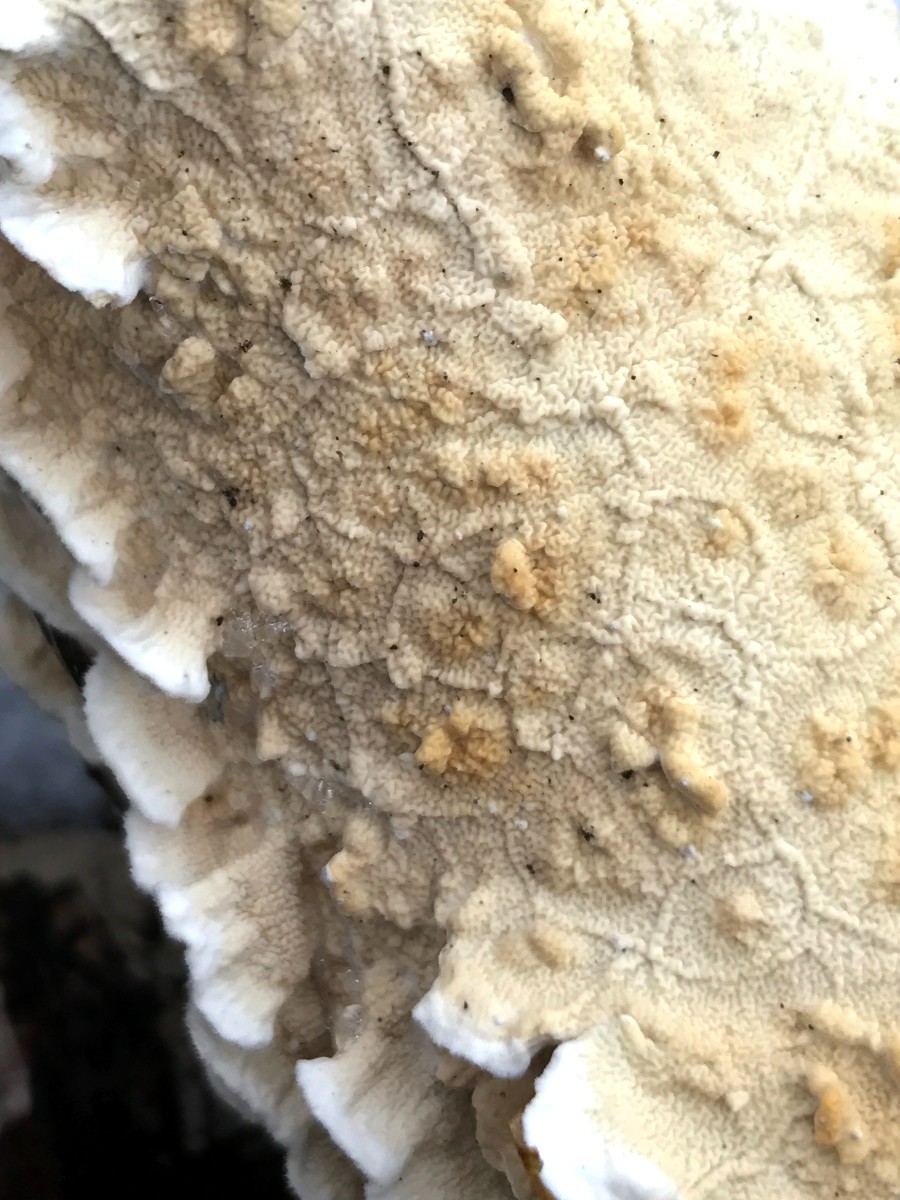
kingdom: Fungi
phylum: Basidiomycota
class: Agaricomycetes
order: Polyporales
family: Irpicaceae
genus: Byssomerulius
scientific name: Byssomerulius corium
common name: læder-åresvamp
